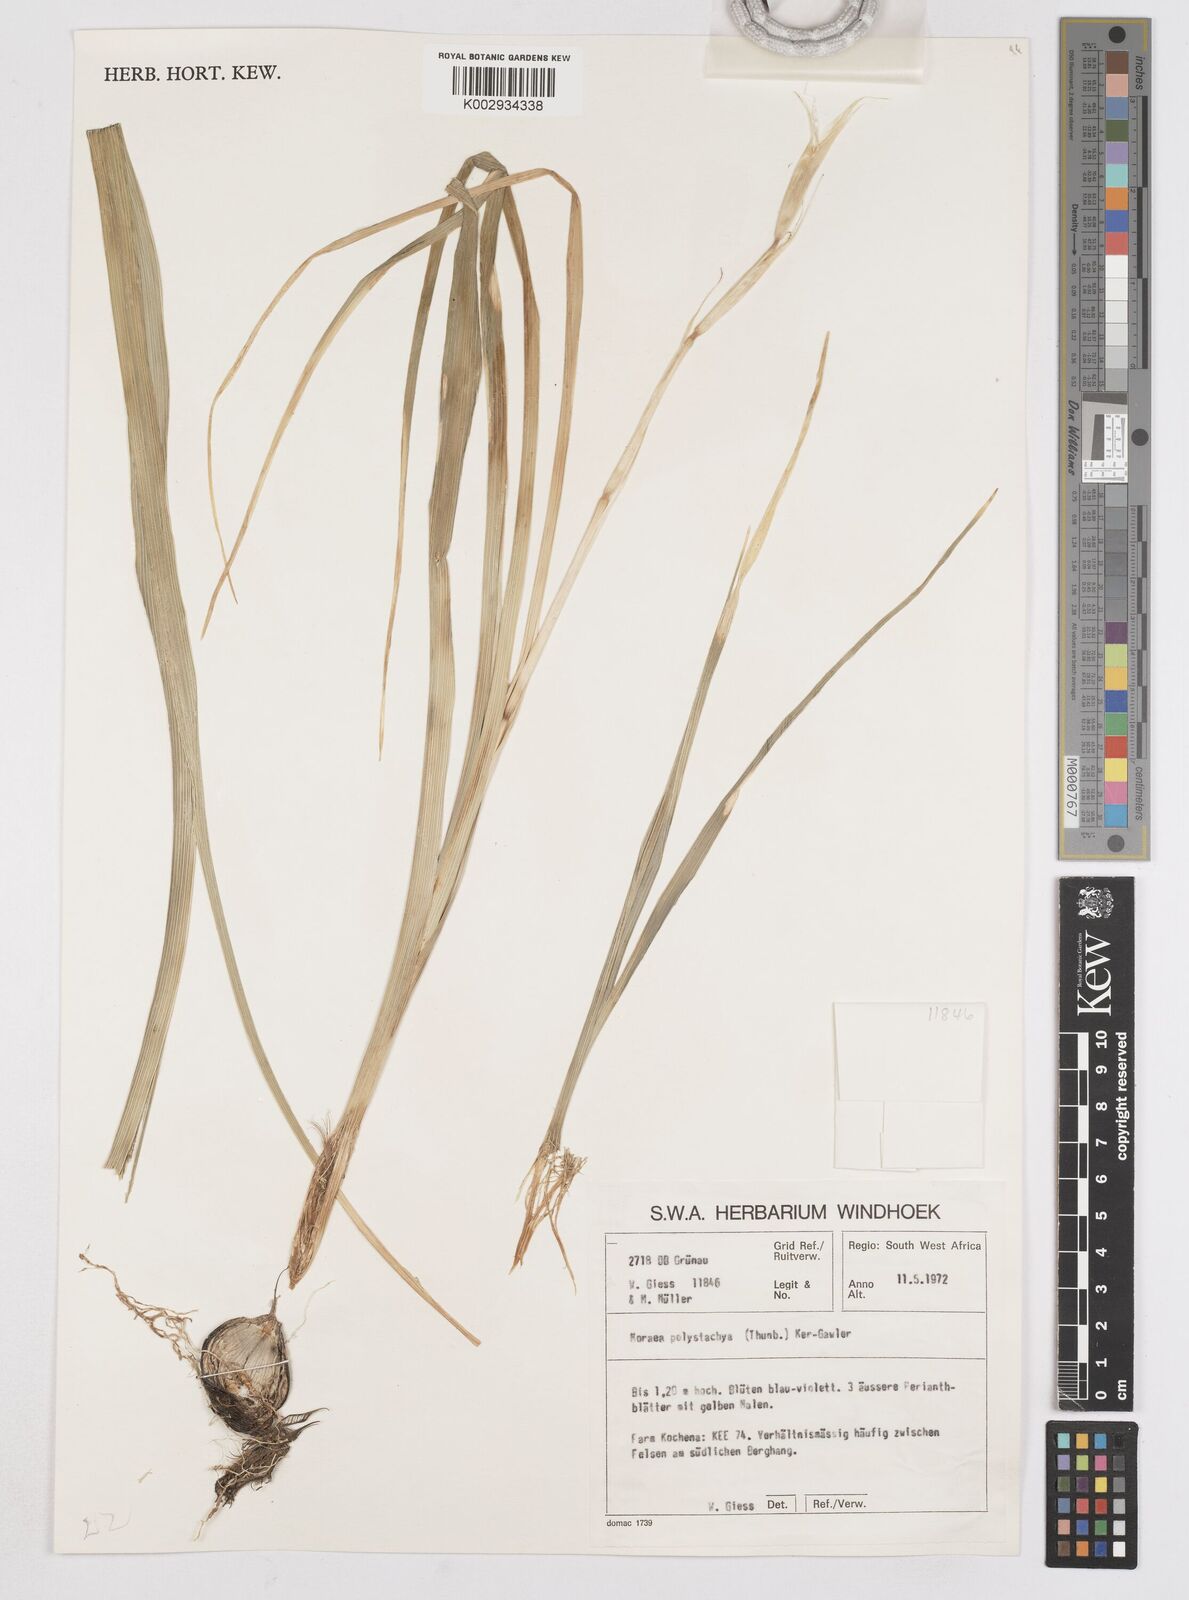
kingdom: Plantae
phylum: Tracheophyta
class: Liliopsida
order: Asparagales
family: Iridaceae
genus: Moraea
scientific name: Moraea polystachya
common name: Blue-tulip
